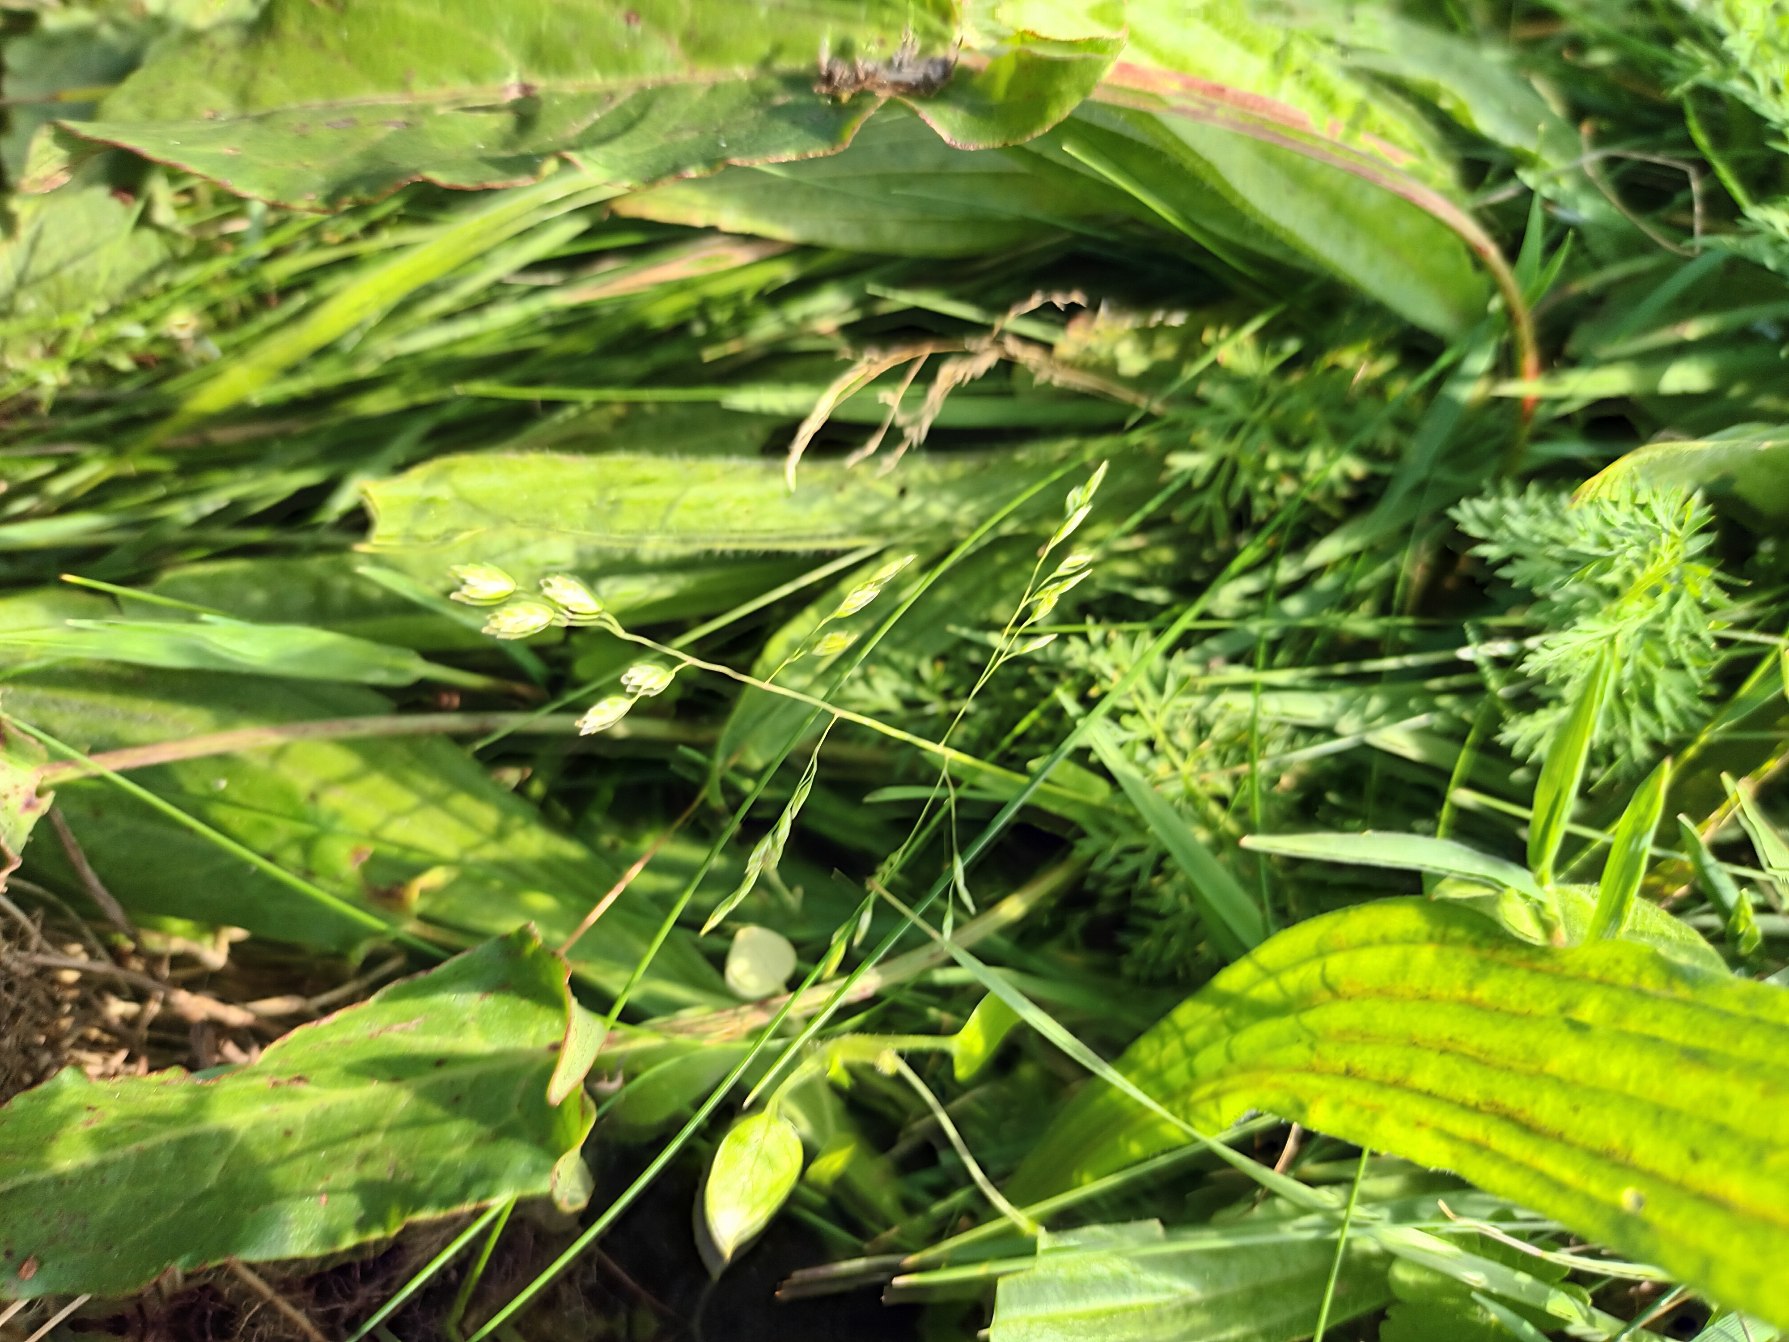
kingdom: Plantae
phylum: Tracheophyta
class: Liliopsida
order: Poales
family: Poaceae
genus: Poa
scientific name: Poa annua
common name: Enårig rapgræs
